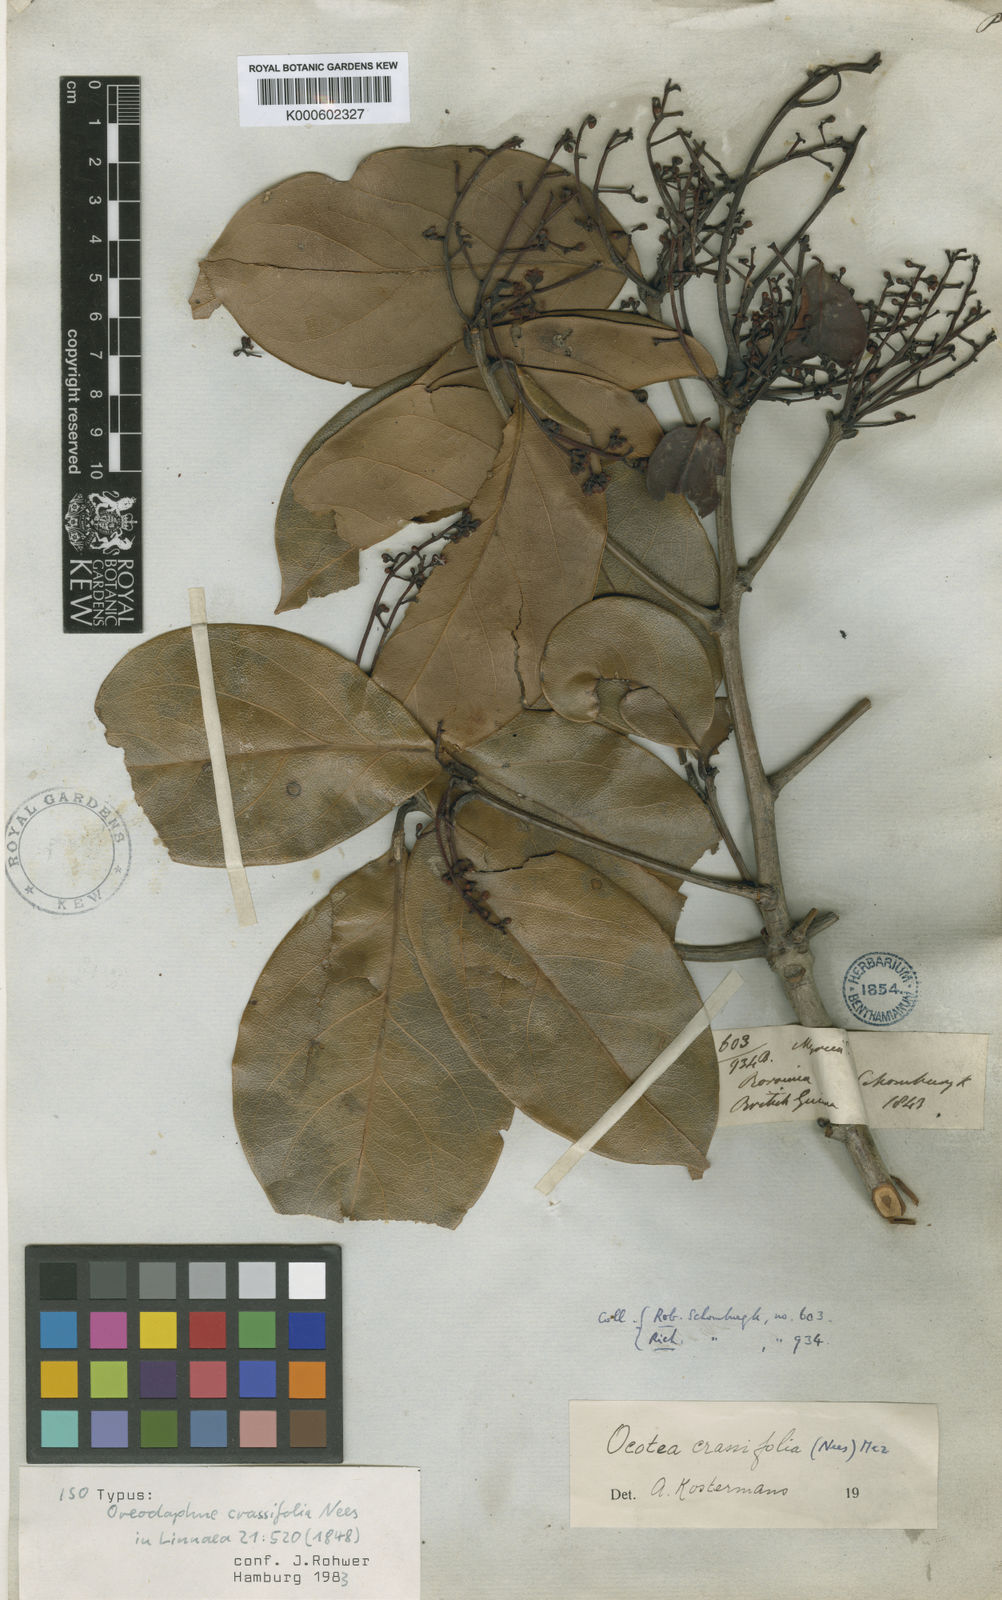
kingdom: Plantae
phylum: Tracheophyta
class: Magnoliopsida
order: Laurales
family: Lauraceae
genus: Ocotea
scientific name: Ocotea crassifolia
